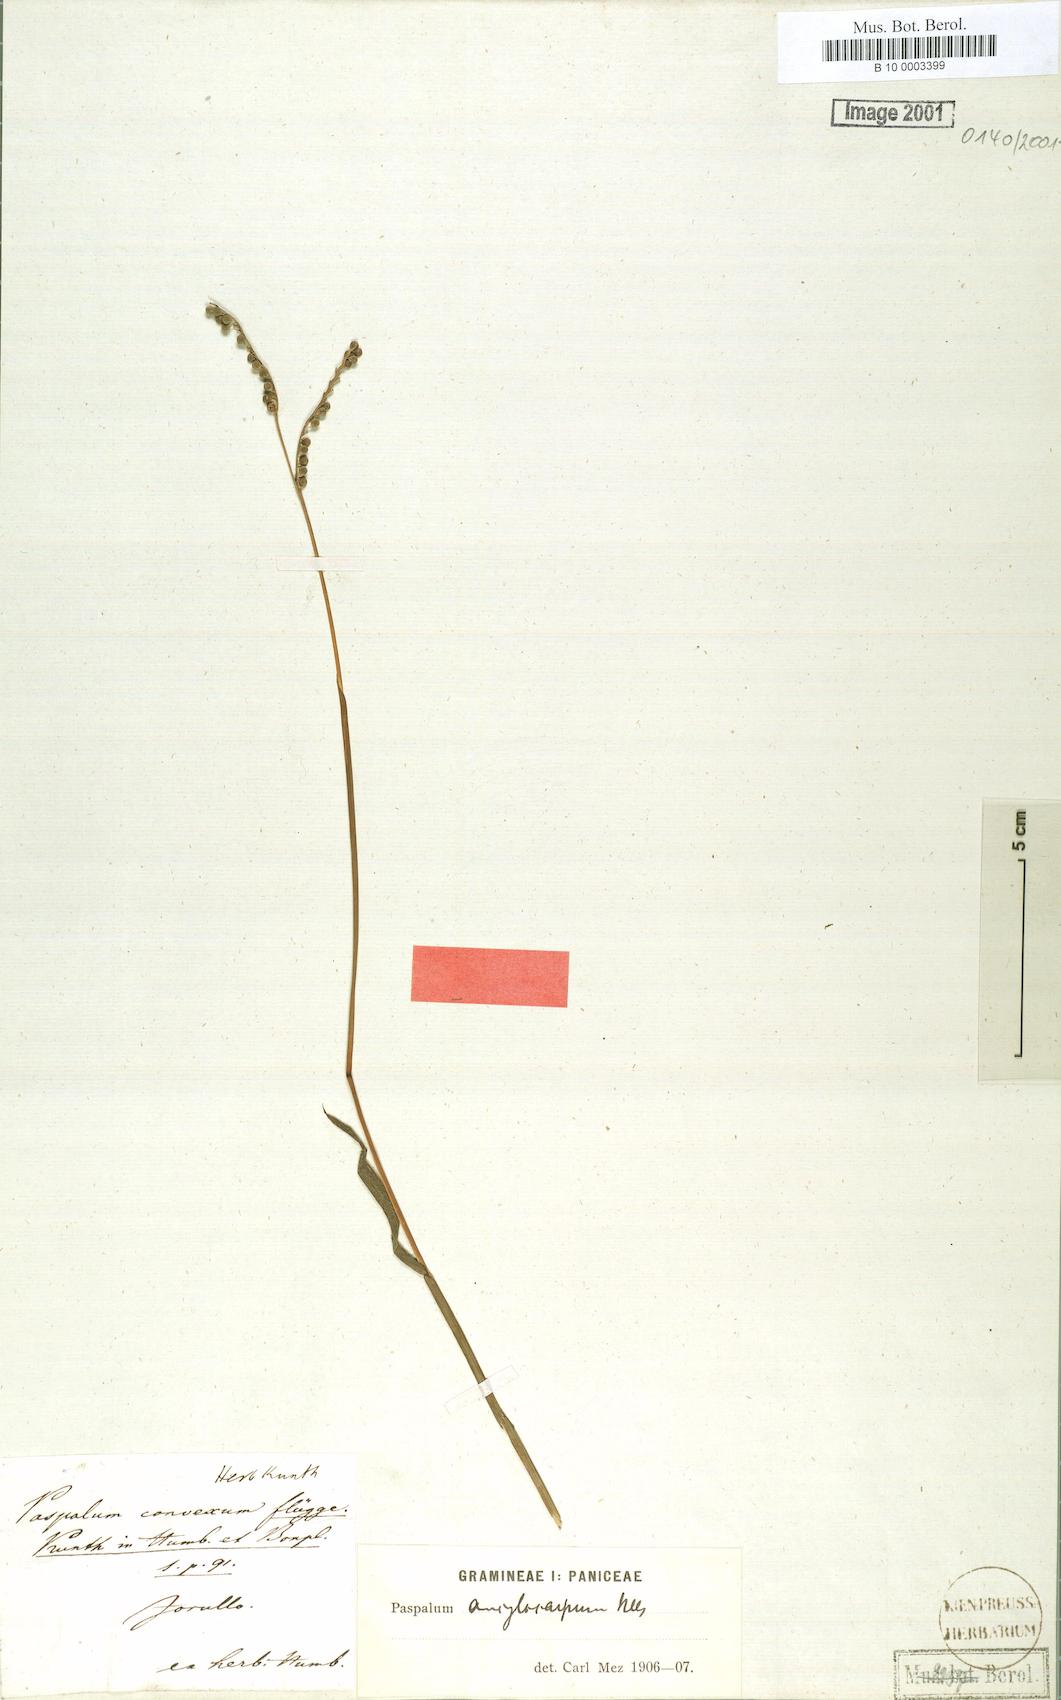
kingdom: Plantae
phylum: Tracheophyta
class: Liliopsida
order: Poales
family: Poaceae
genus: Paspalum
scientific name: Paspalum convexum
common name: Latin american crowngrass
